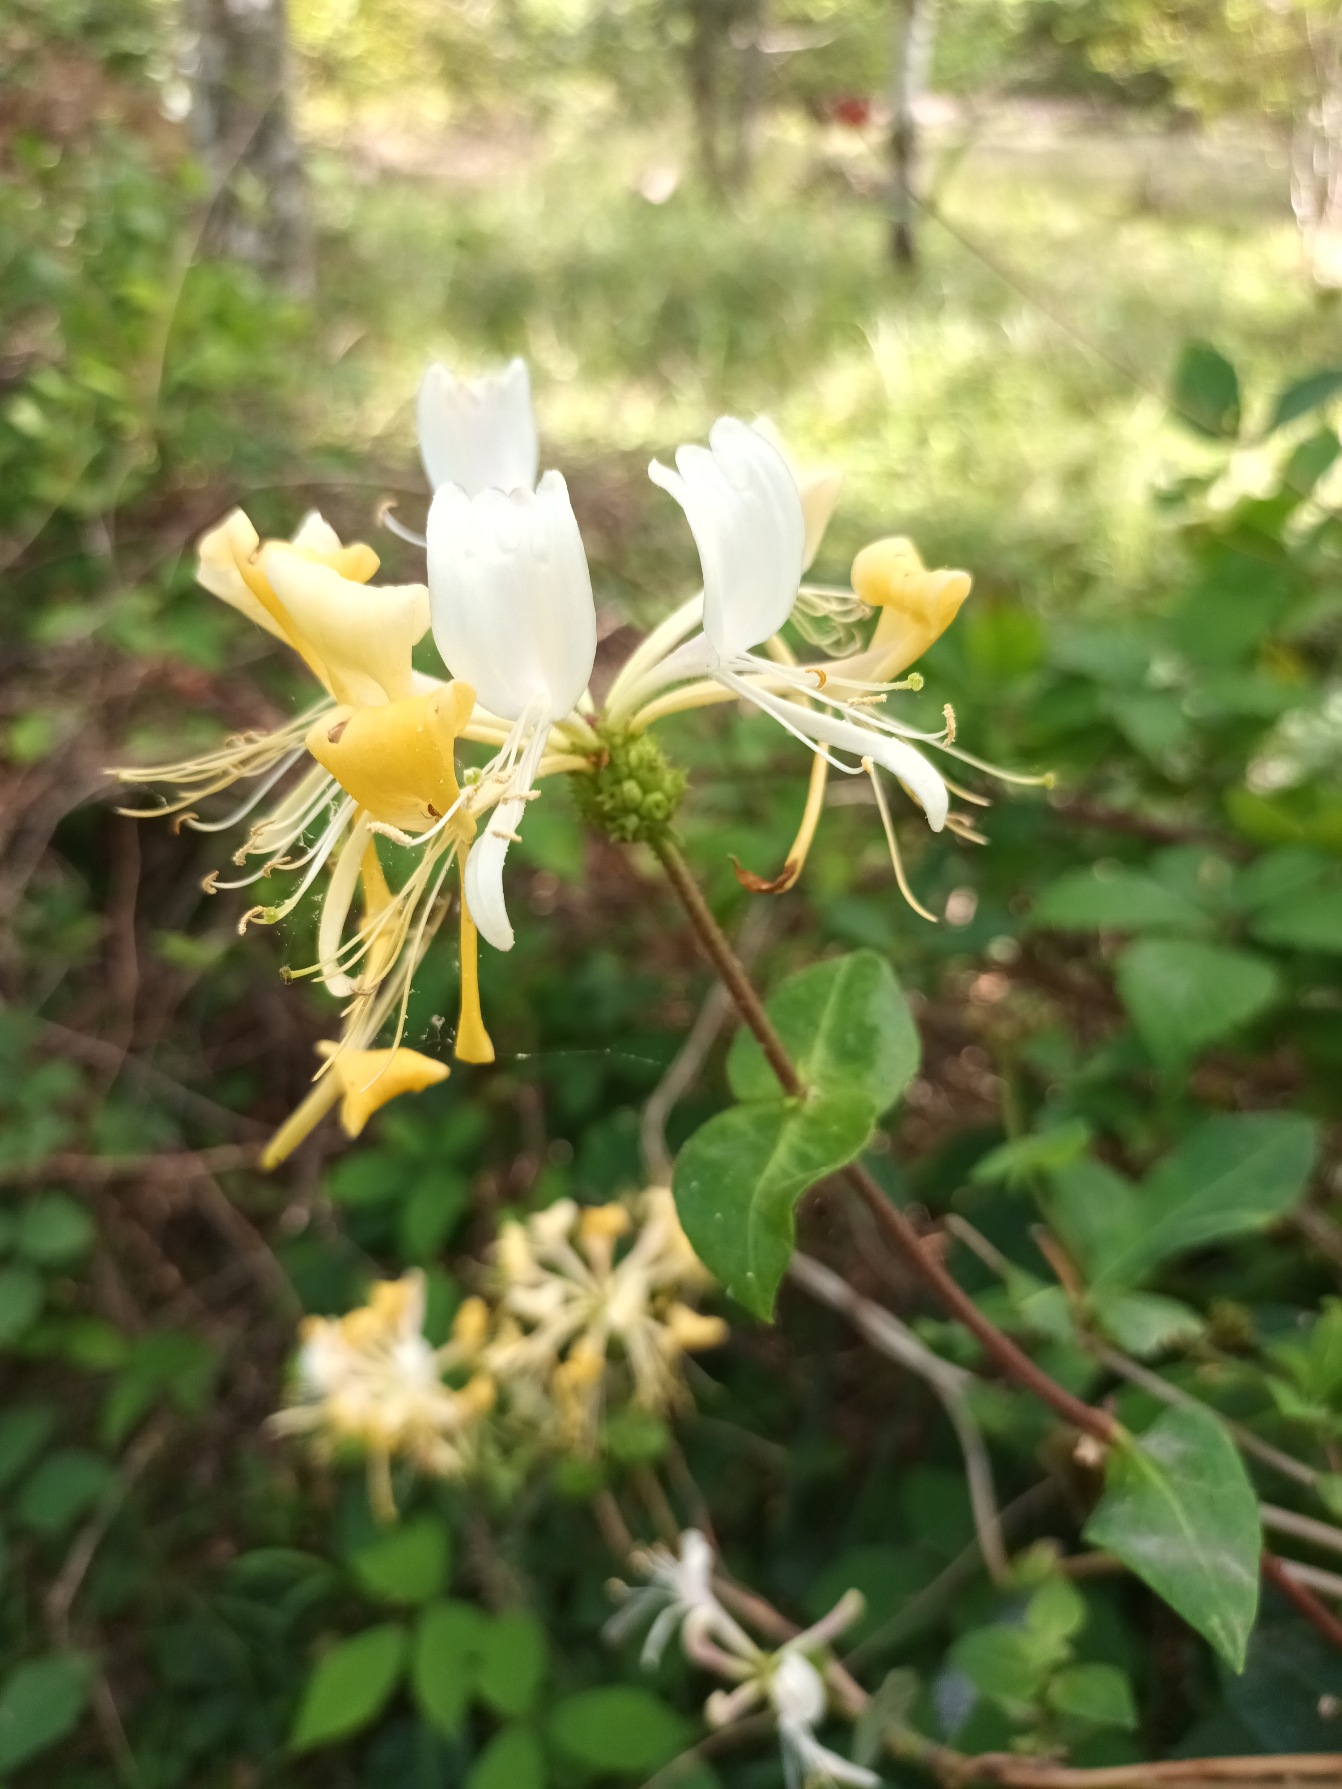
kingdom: Plantae
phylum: Tracheophyta
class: Magnoliopsida
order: Dipsacales
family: Caprifoliaceae
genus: Lonicera
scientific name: Lonicera periclymenum
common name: Almindelig gedeblad
